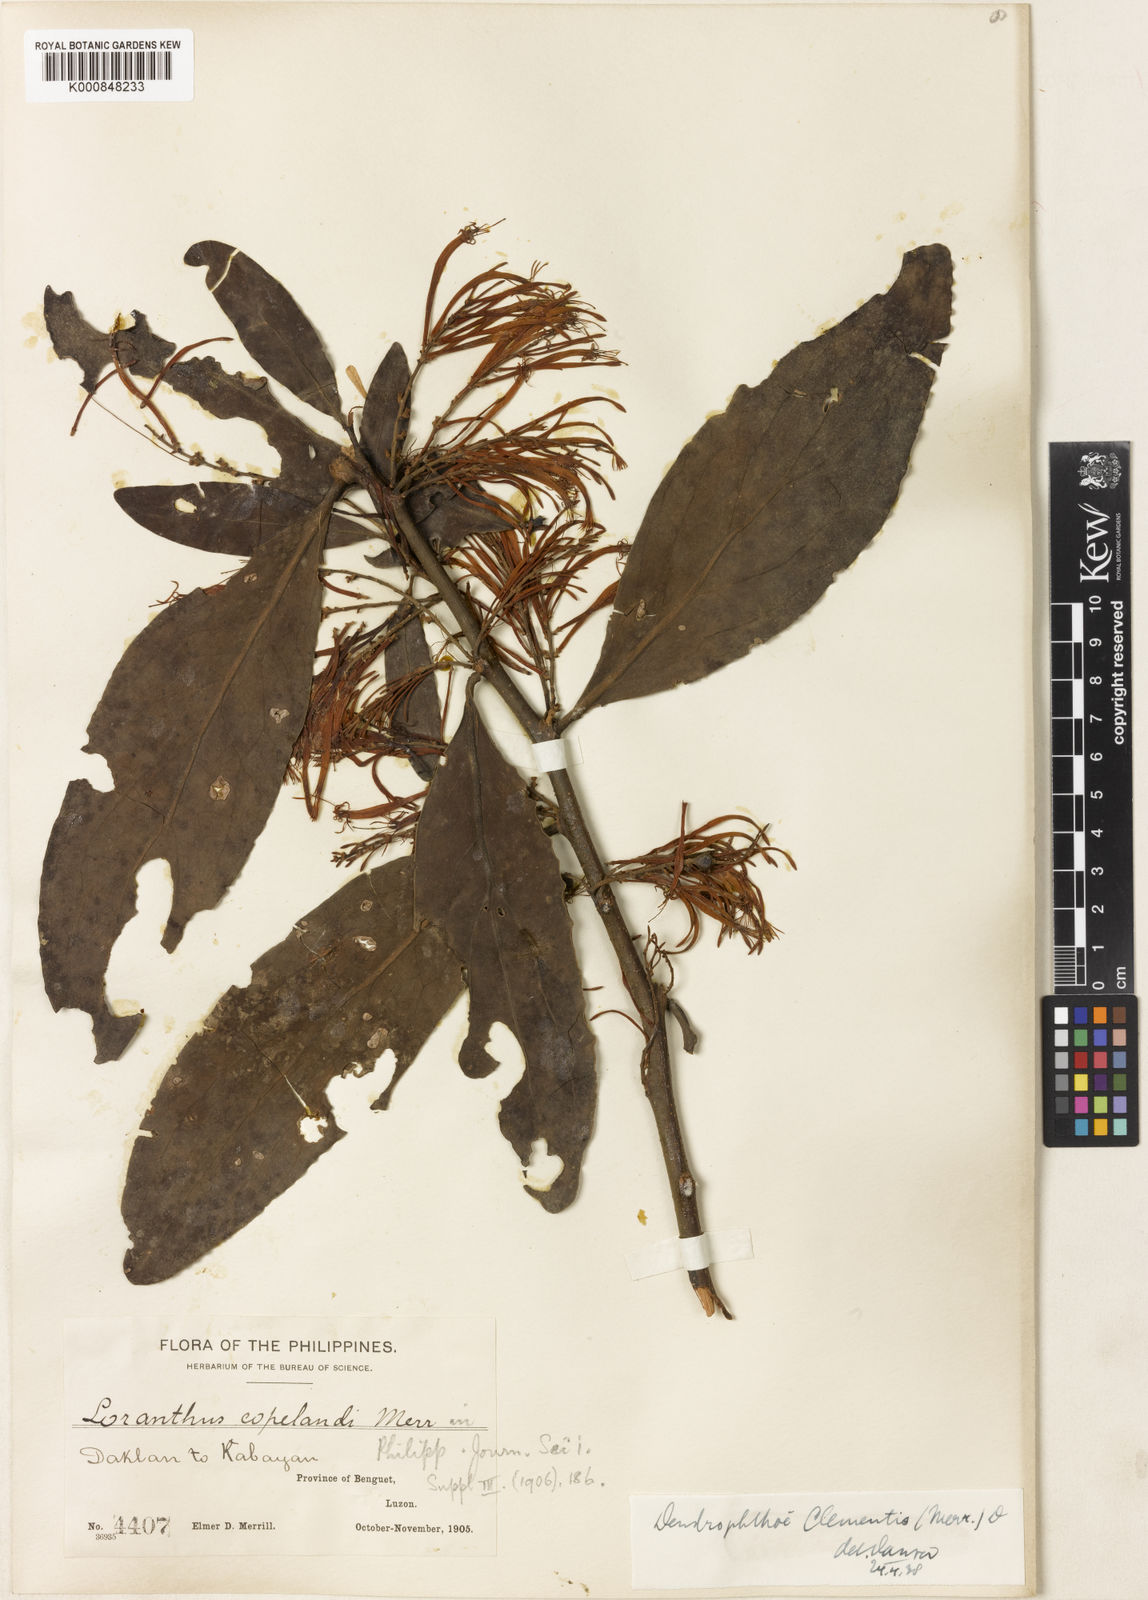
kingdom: Plantae
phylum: Tracheophyta
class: Magnoliopsida
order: Santalales
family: Loranthaceae
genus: Dendrophthoe
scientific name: Dendrophthoe clementis
